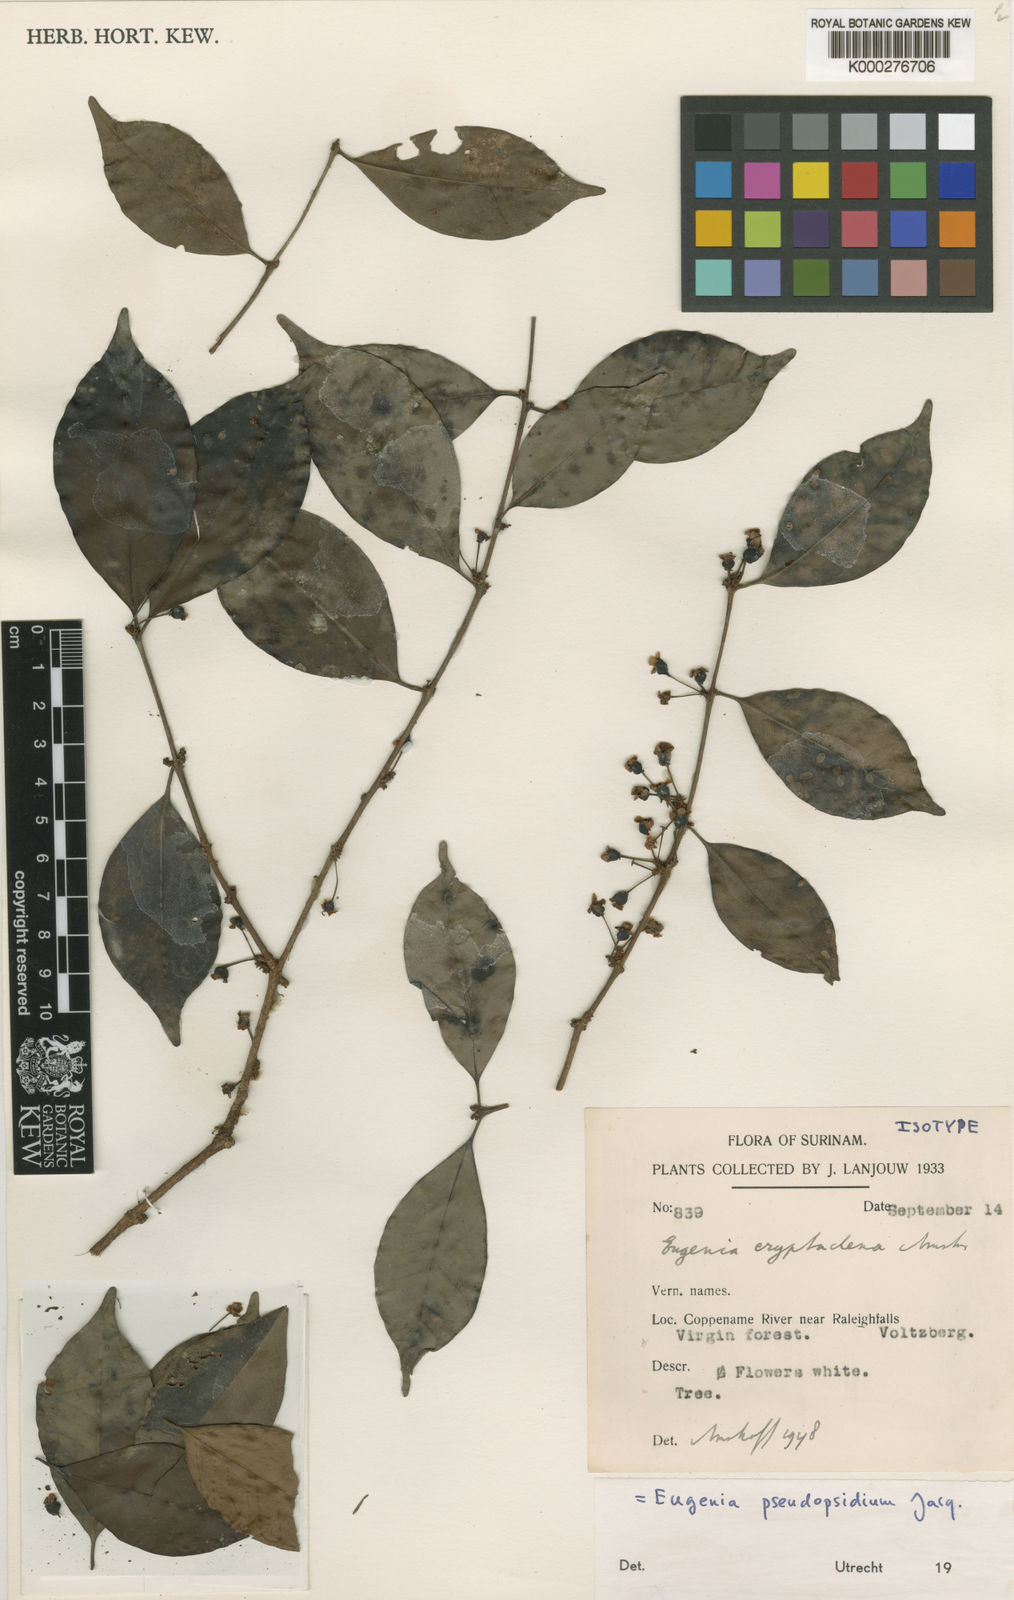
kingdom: Plantae
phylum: Tracheophyta
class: Magnoliopsida
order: Myrtales
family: Myrtaceae
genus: Eugenia
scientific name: Eugenia pseudopsidium
